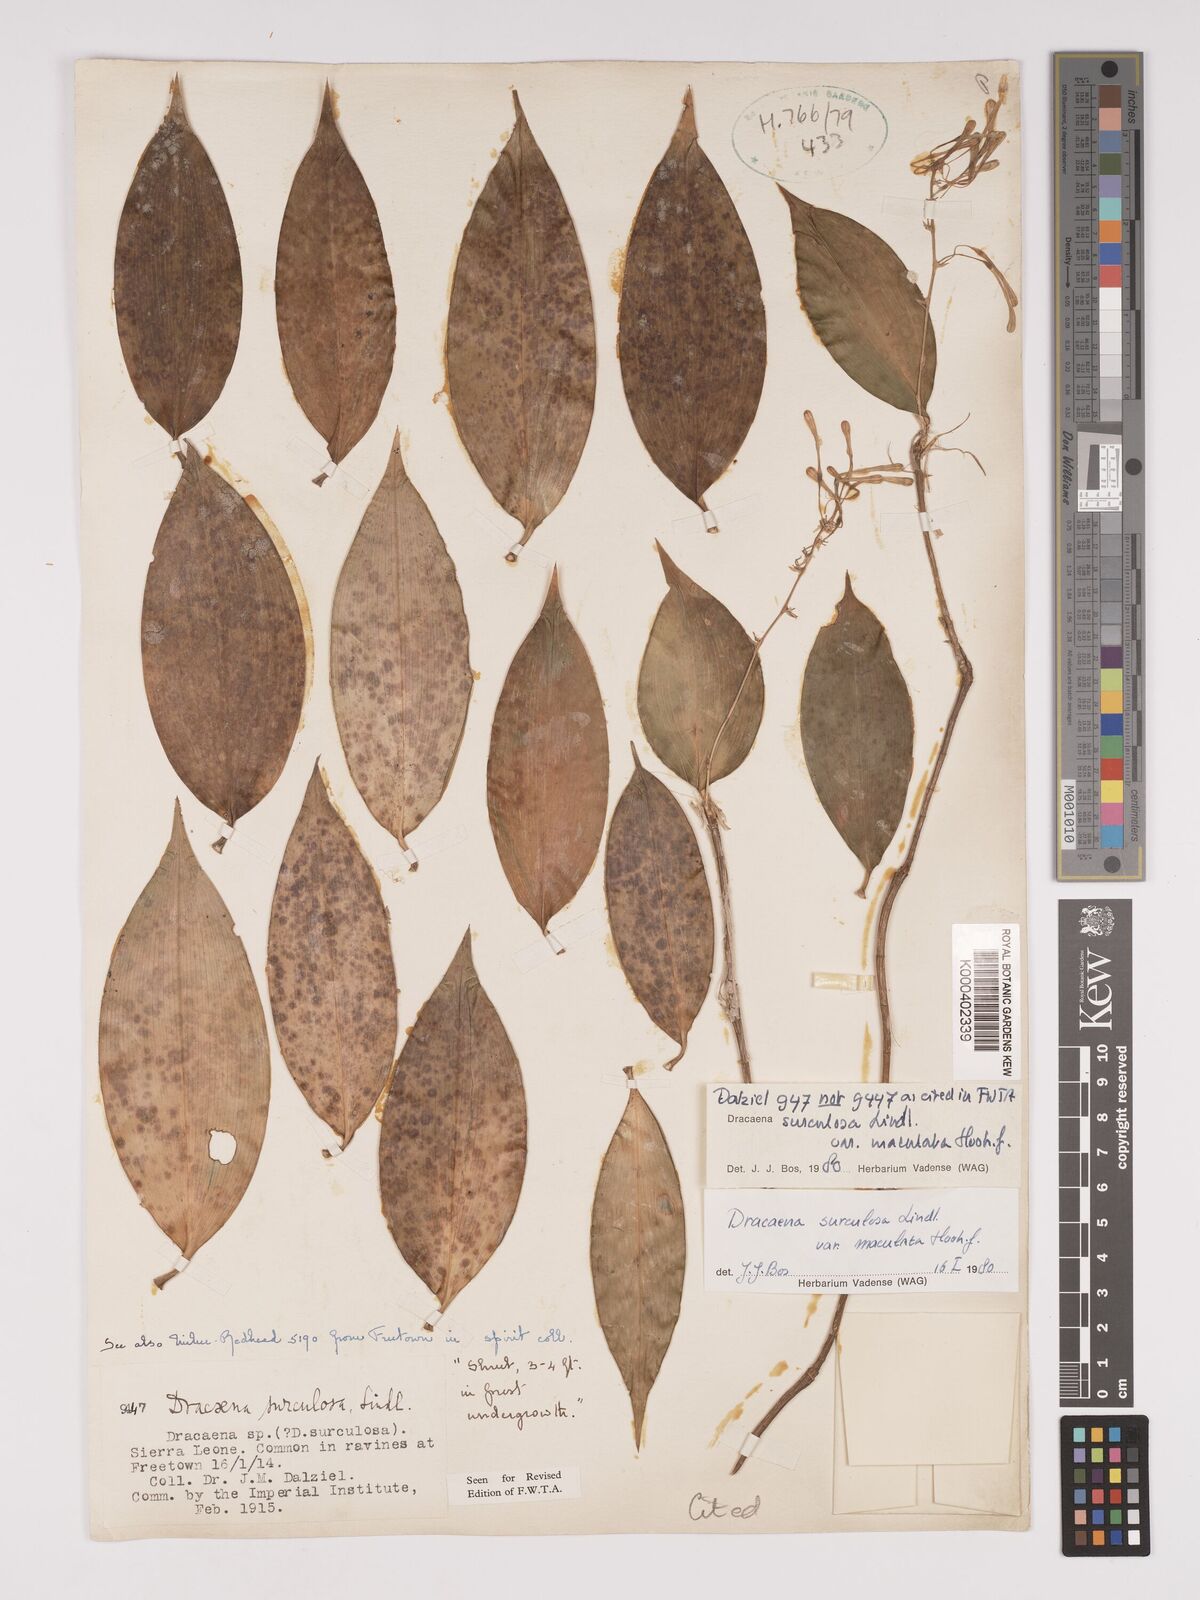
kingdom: Plantae
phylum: Tracheophyta
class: Liliopsida
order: Asparagales
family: Asparagaceae
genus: Dracaena
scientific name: Dracaena surculosa
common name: Spotted dracaena
